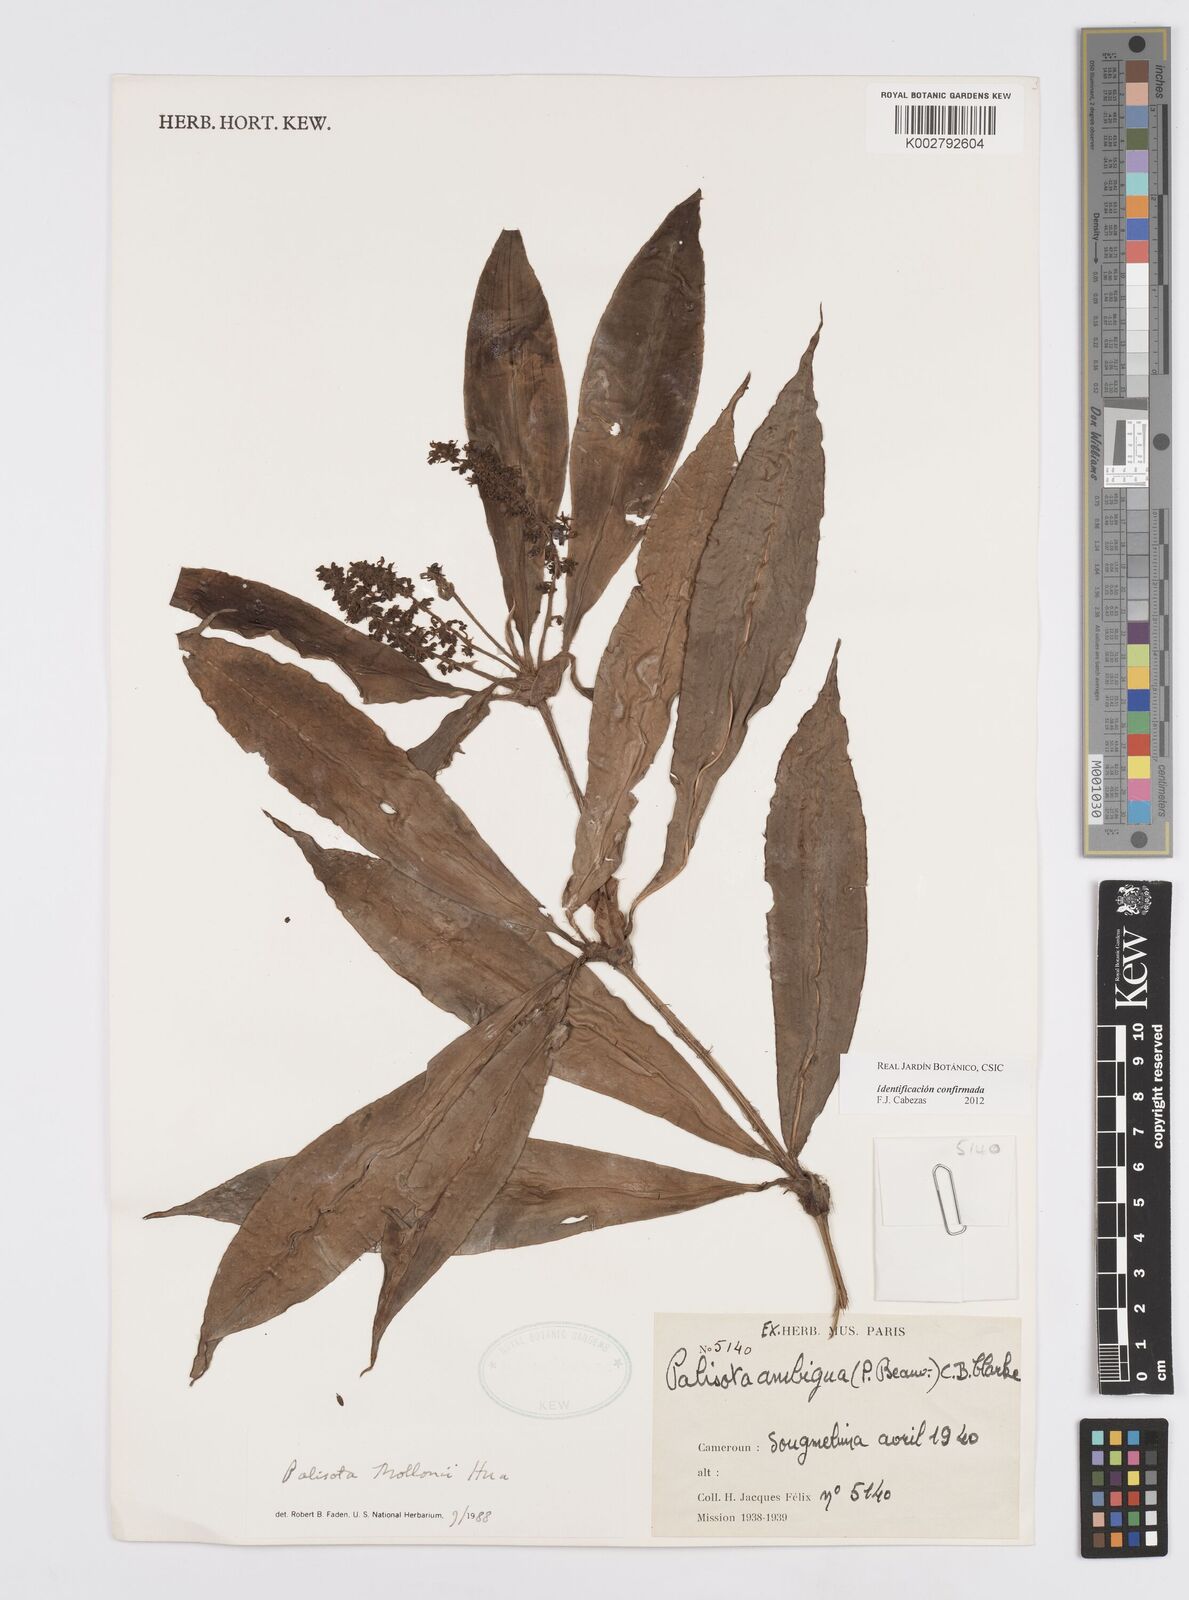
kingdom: Plantae
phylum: Tracheophyta
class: Liliopsida
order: Commelinales
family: Commelinaceae
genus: Palisota
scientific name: Palisota thollonii
